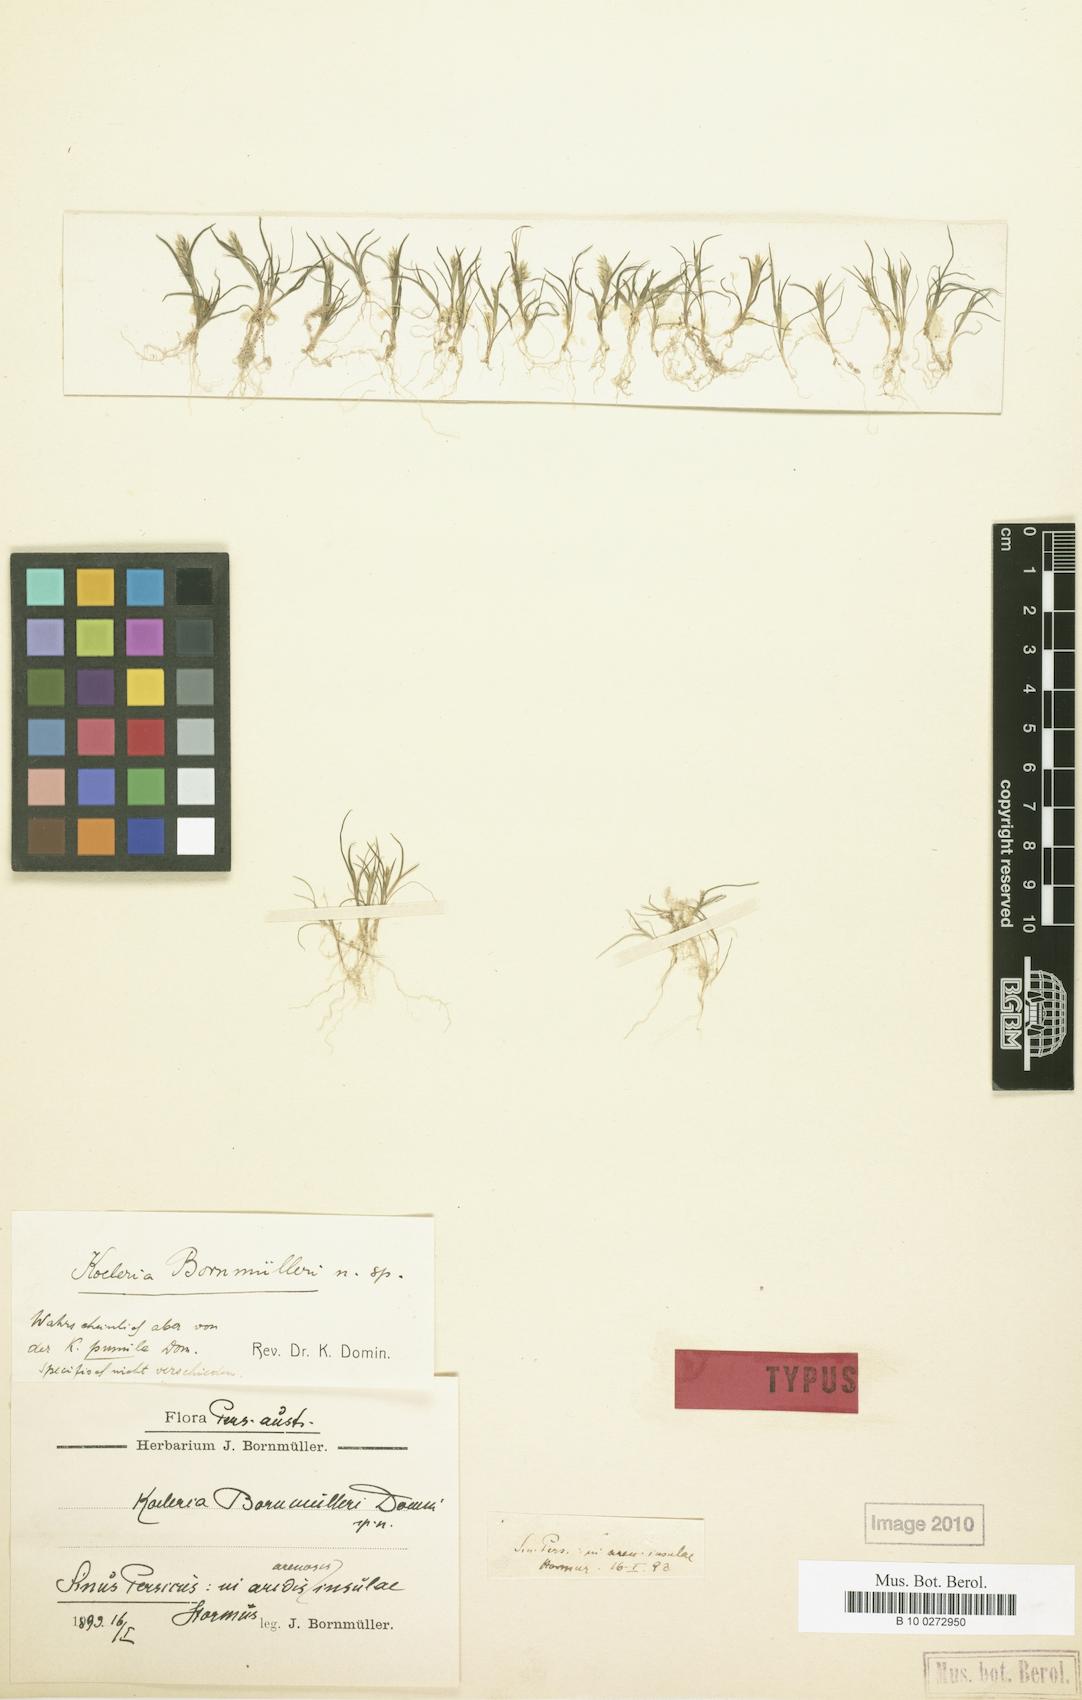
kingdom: Plantae
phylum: Tracheophyta
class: Liliopsida
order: Poales
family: Poaceae
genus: Rostraria
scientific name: Rostraria pumila
